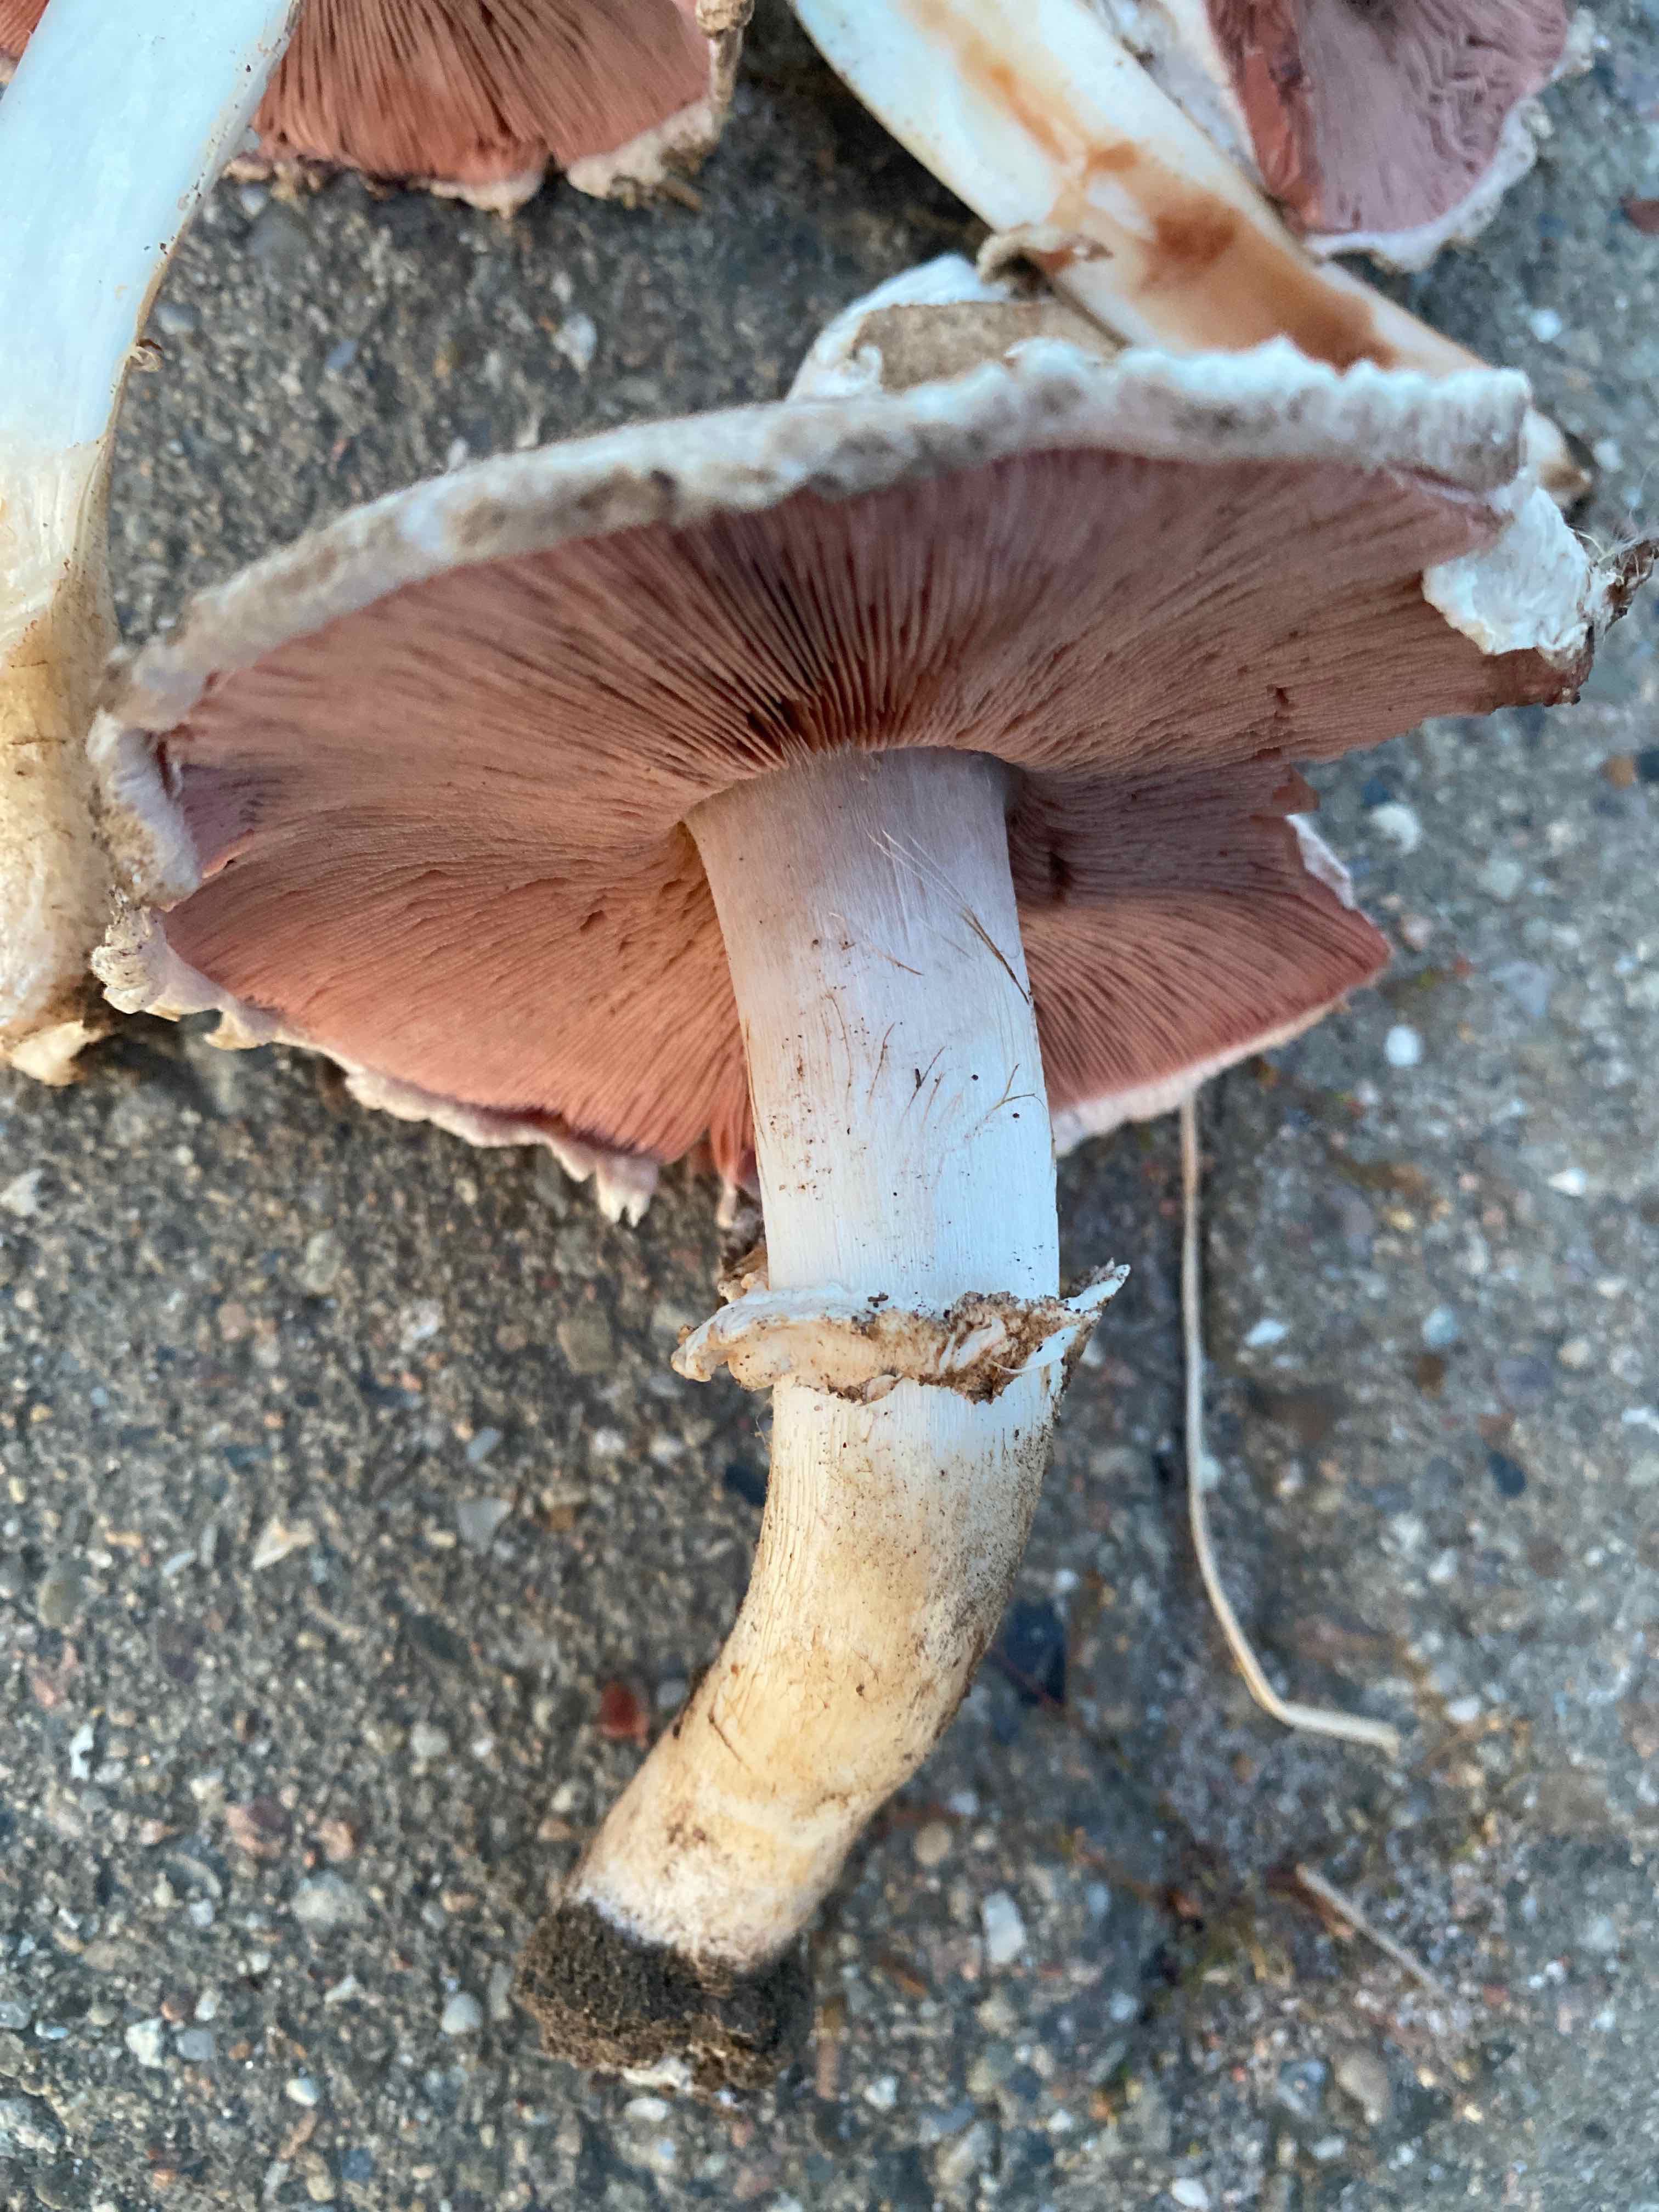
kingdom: Fungi
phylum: Basidiomycota
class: Agaricomycetes
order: Agaricales
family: Agaricaceae
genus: Agaricus
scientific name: Agaricus
